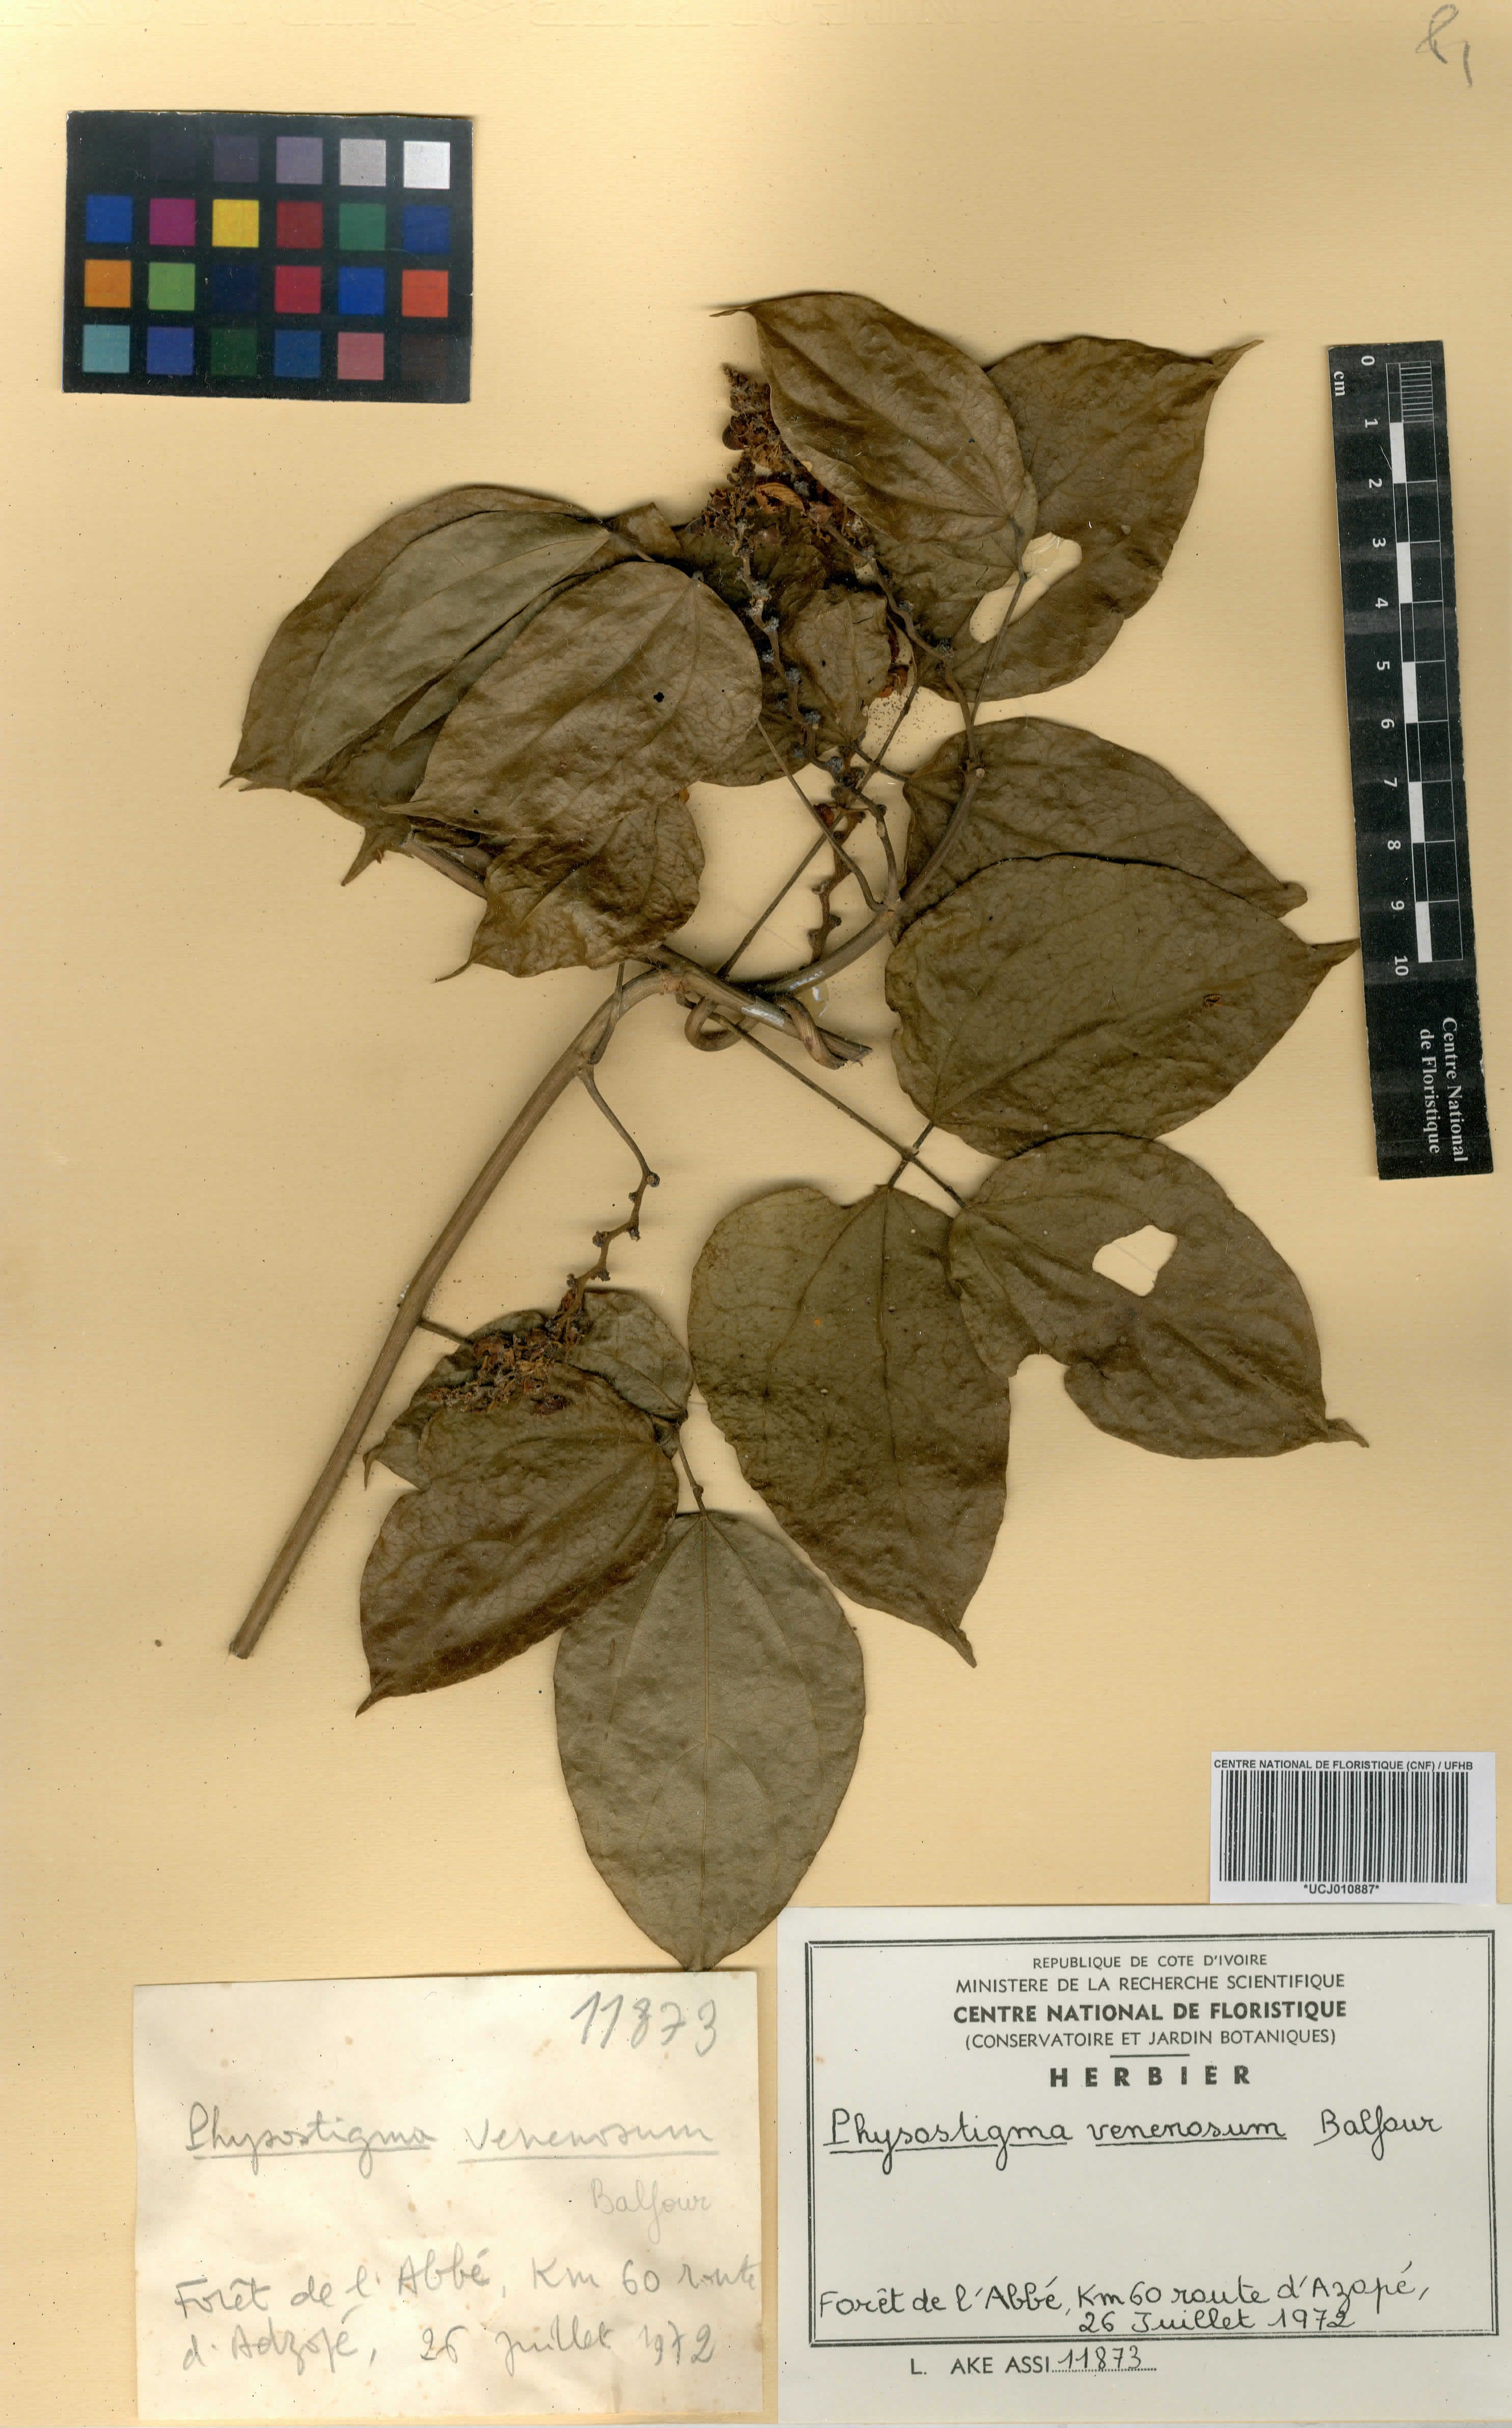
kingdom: Plantae
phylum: Tracheophyta
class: Magnoliopsida
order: Fabales
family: Fabaceae
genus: Physostigma
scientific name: Physostigma venenosum
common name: Calabar-bean
